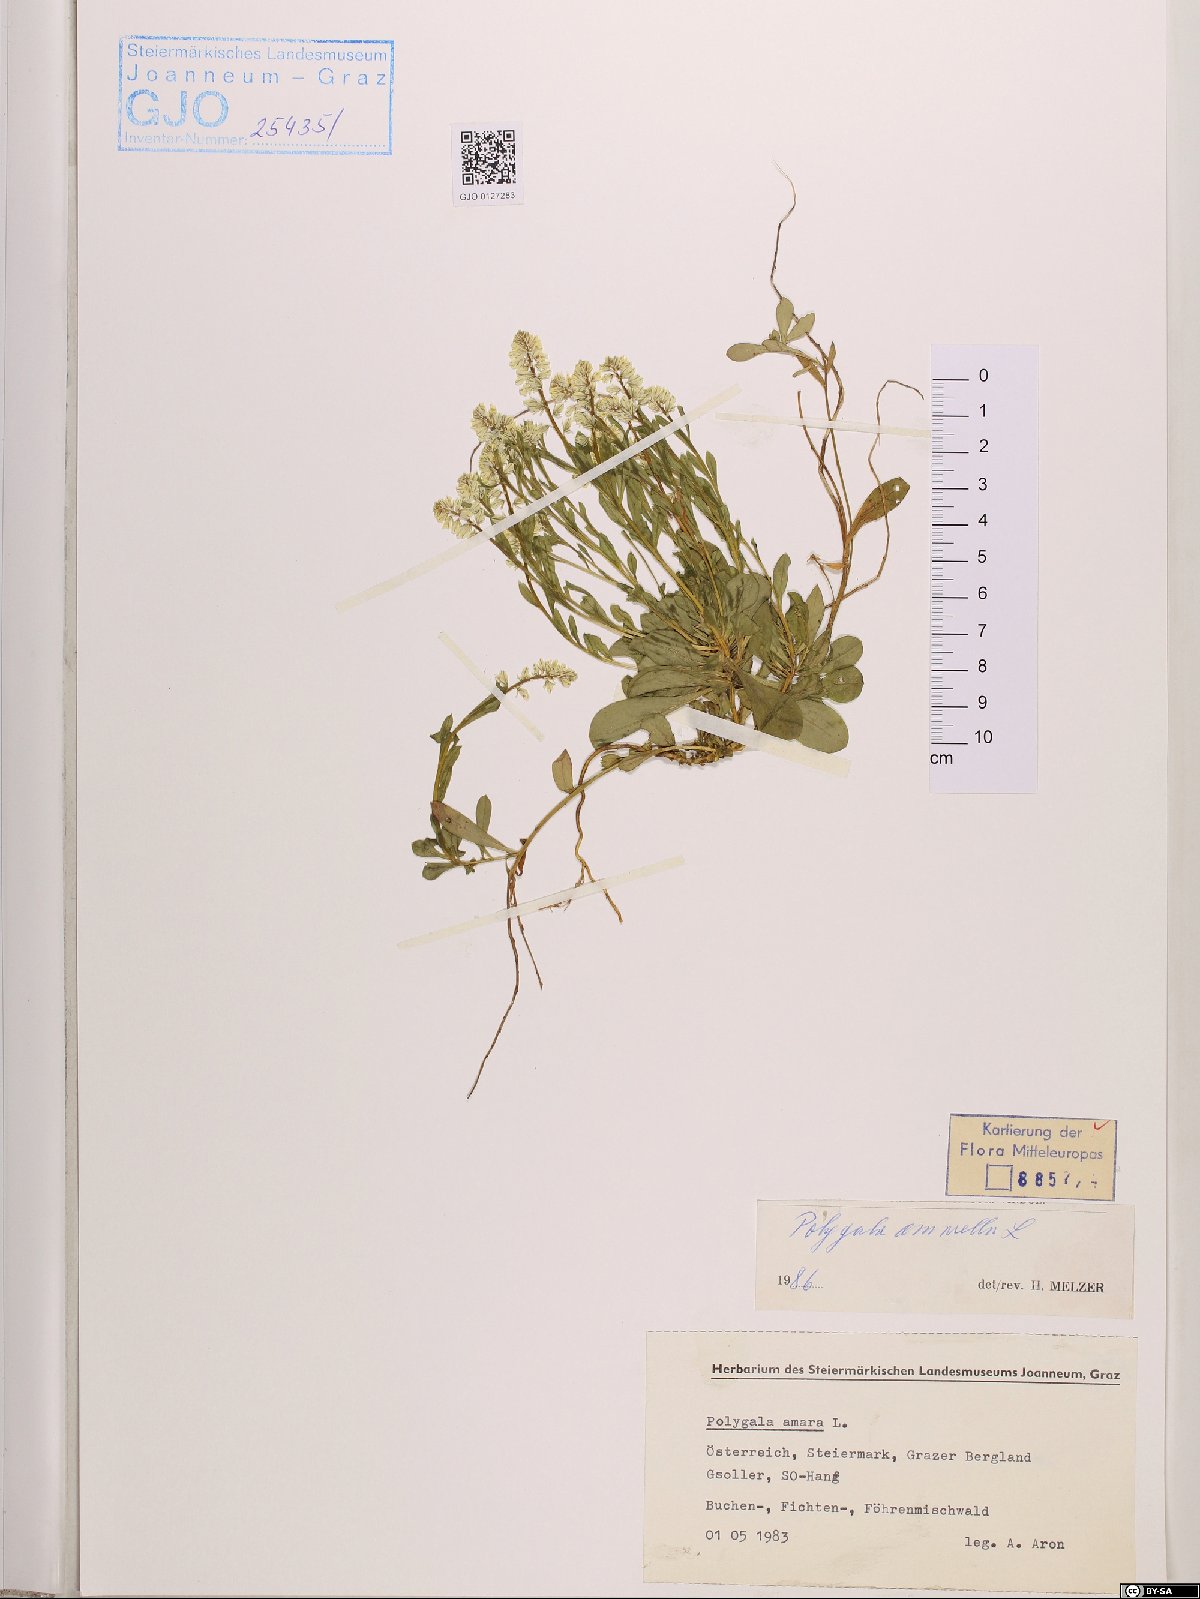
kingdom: Plantae
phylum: Tracheophyta
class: Magnoliopsida
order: Fabales
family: Polygalaceae
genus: Polygala
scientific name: Polygala amarella
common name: Dwarf milkwort
